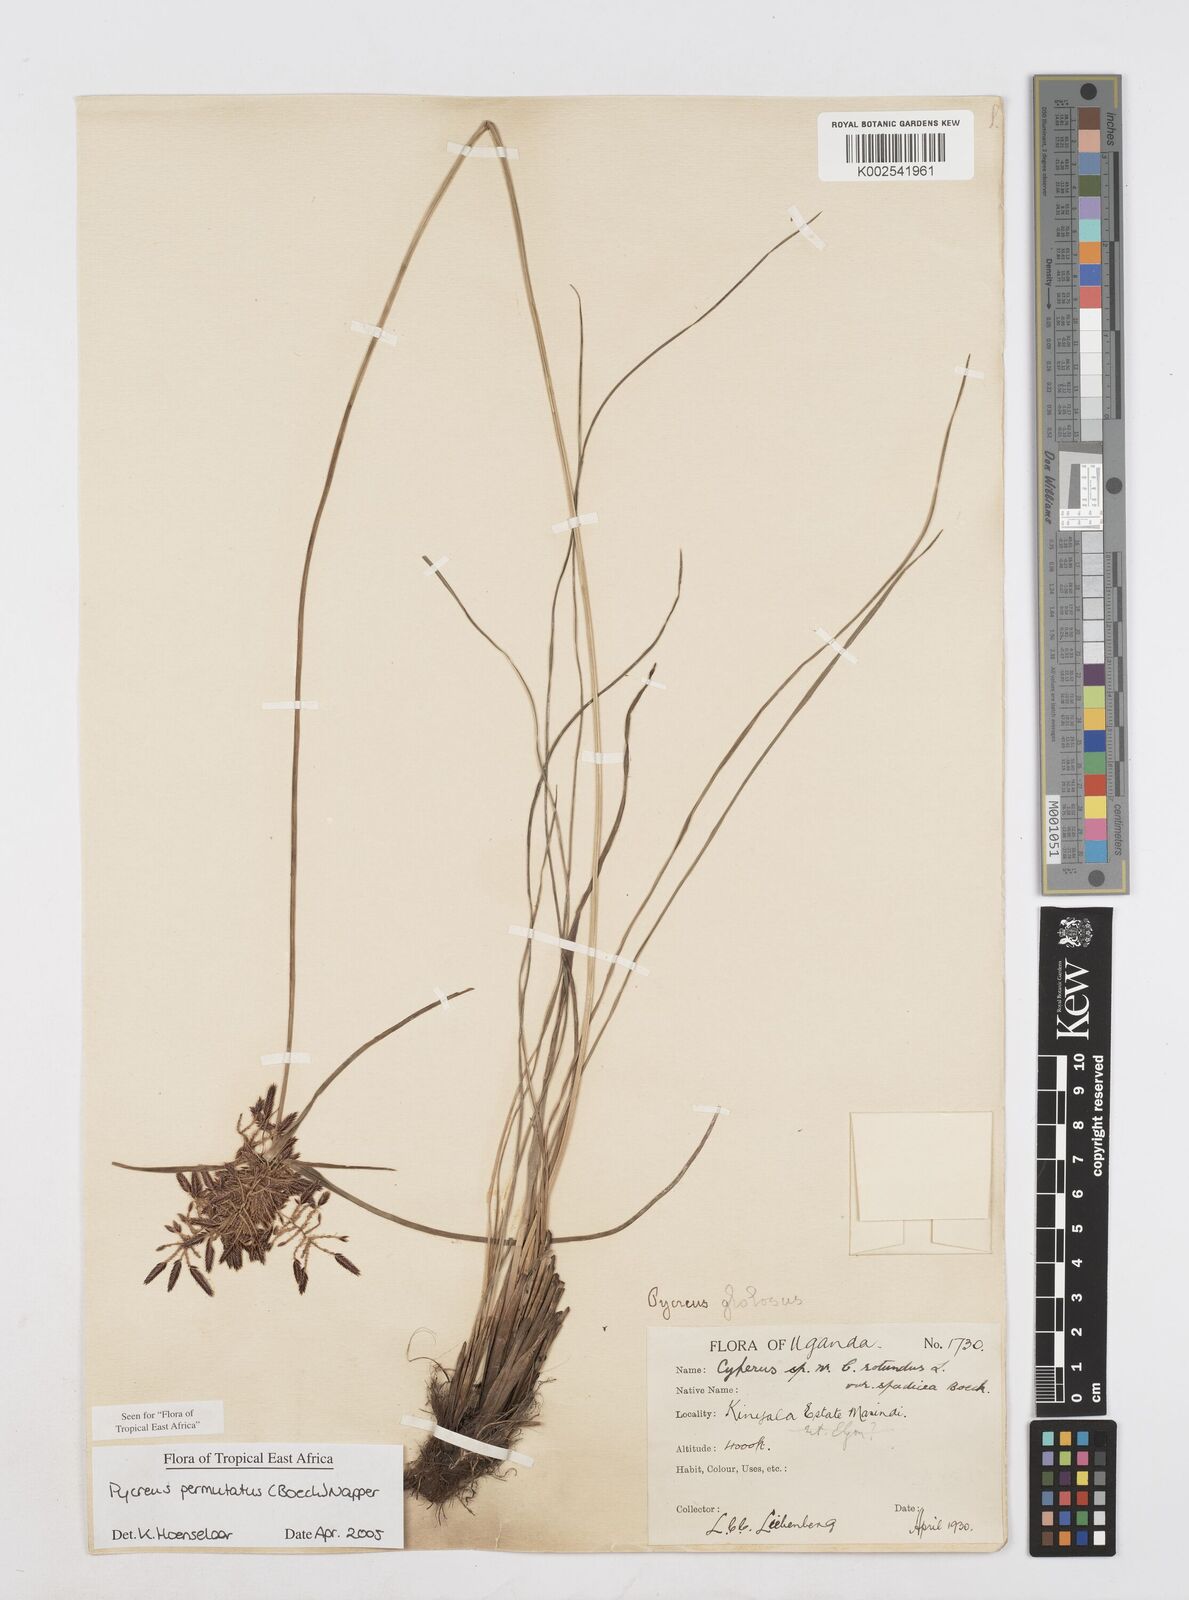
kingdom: Plantae
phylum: Tracheophyta
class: Liliopsida
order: Poales
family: Cyperaceae
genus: Cyperus
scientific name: Cyperus nigricans
